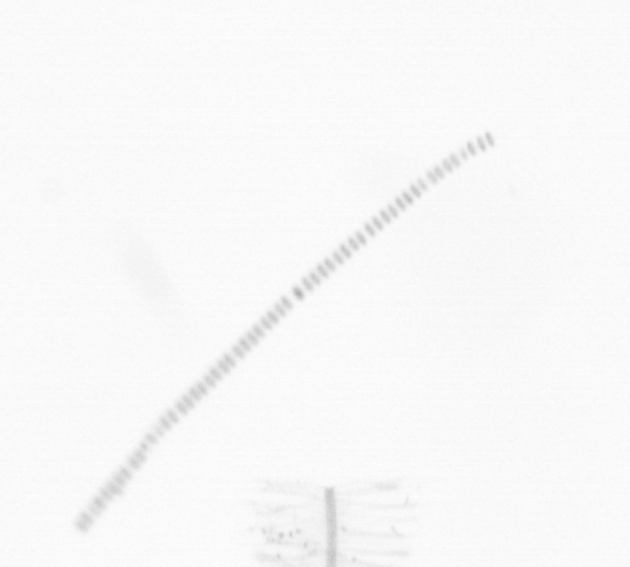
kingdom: Chromista
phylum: Ochrophyta
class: Bacillariophyceae
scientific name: Bacillariophyceae
